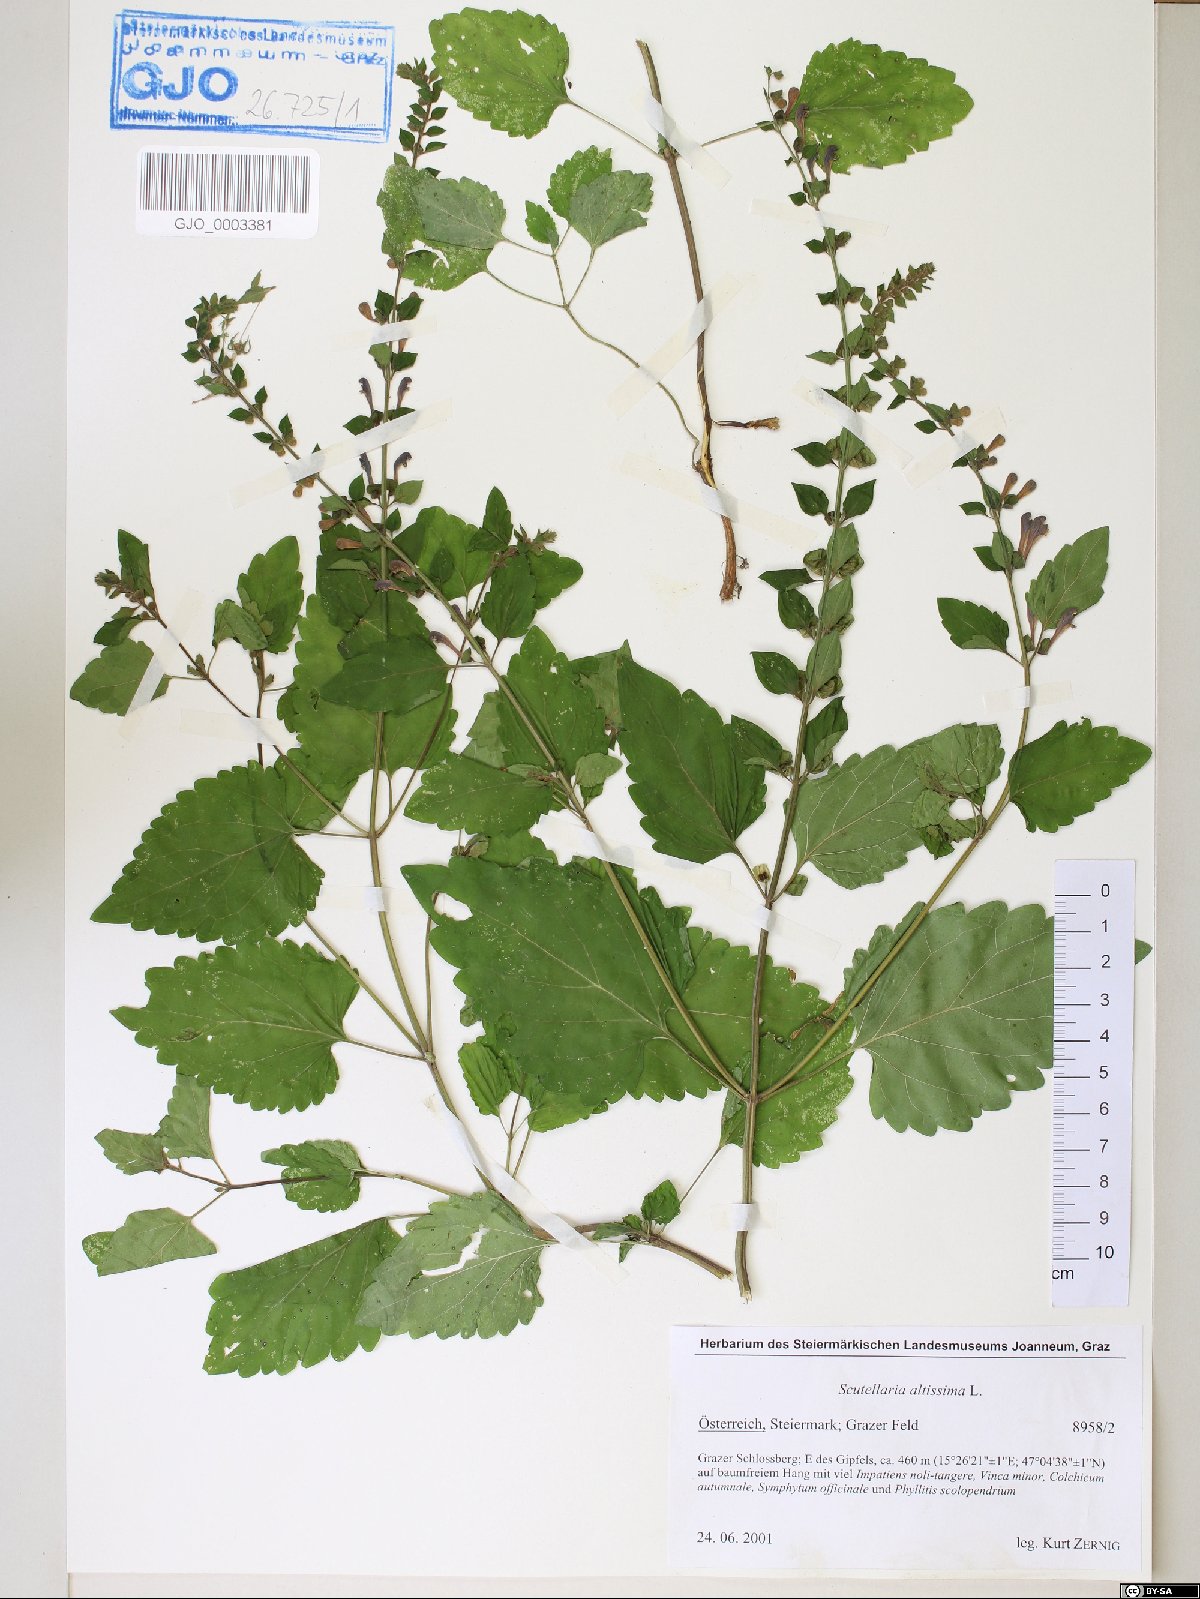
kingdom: Plantae
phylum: Tracheophyta
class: Magnoliopsida
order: Lamiales
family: Lamiaceae
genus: Scutellaria
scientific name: Scutellaria altissima
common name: Somerset skullcap
